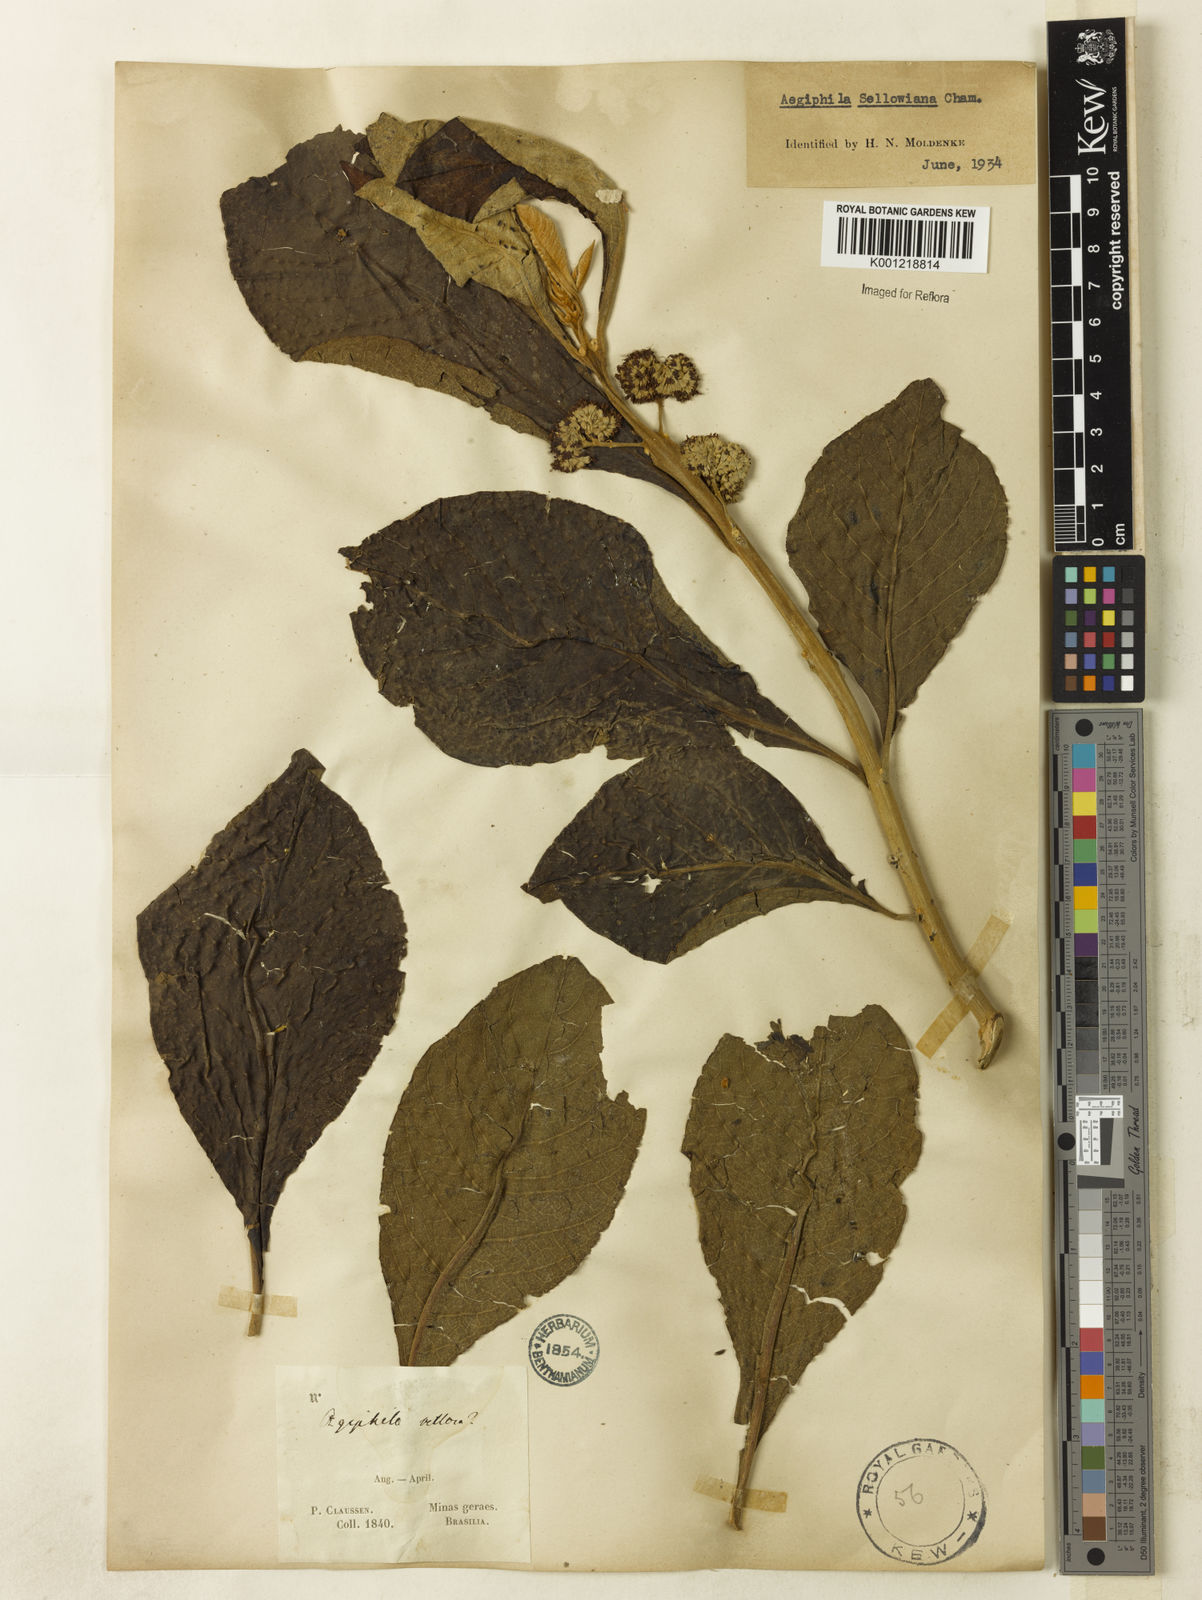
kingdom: Plantae
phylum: Tracheophyta
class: Magnoliopsida
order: Lamiales
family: Lamiaceae
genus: Aegiphila
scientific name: Aegiphila verticillata
